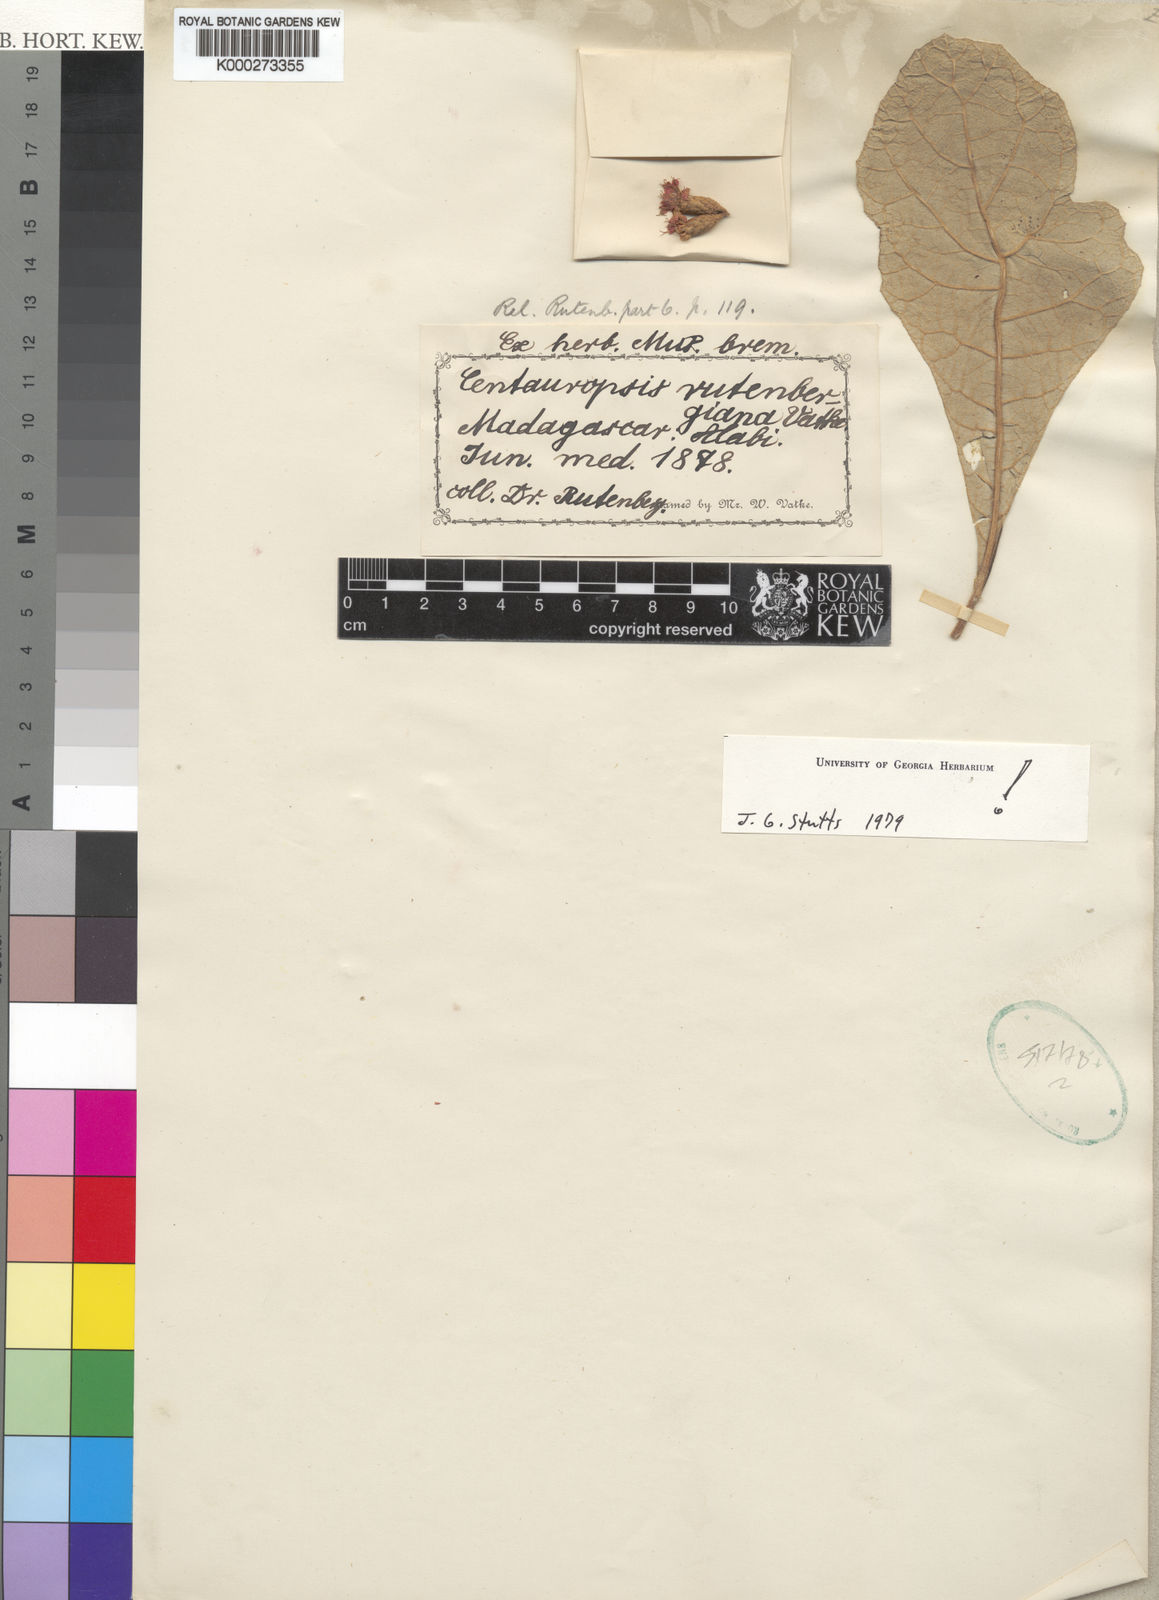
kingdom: Plantae
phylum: Tracheophyta
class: Magnoliopsida
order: Asterales
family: Asteraceae
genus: Centauropsis
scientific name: Centauropsis lanuginosa
